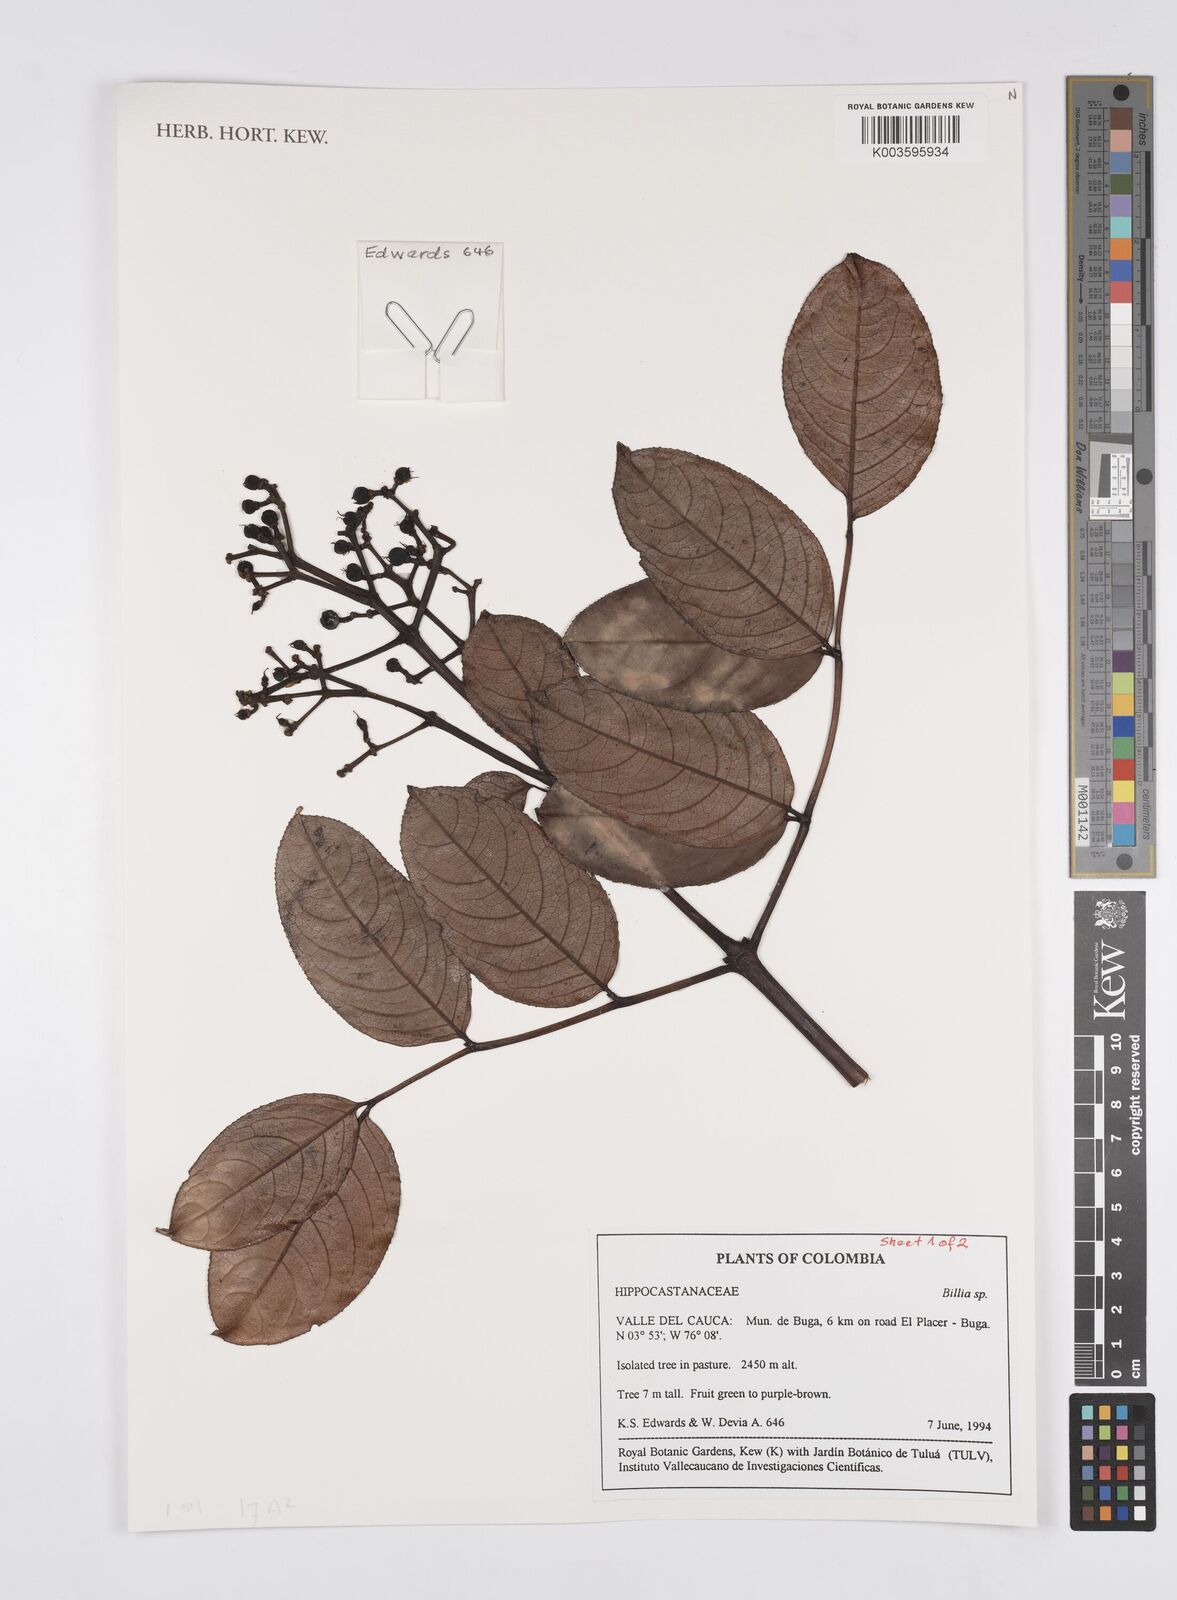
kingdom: Plantae
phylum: Tracheophyta
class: Magnoliopsida
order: Sapindales
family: Sapindaceae
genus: Billia
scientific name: Billia
